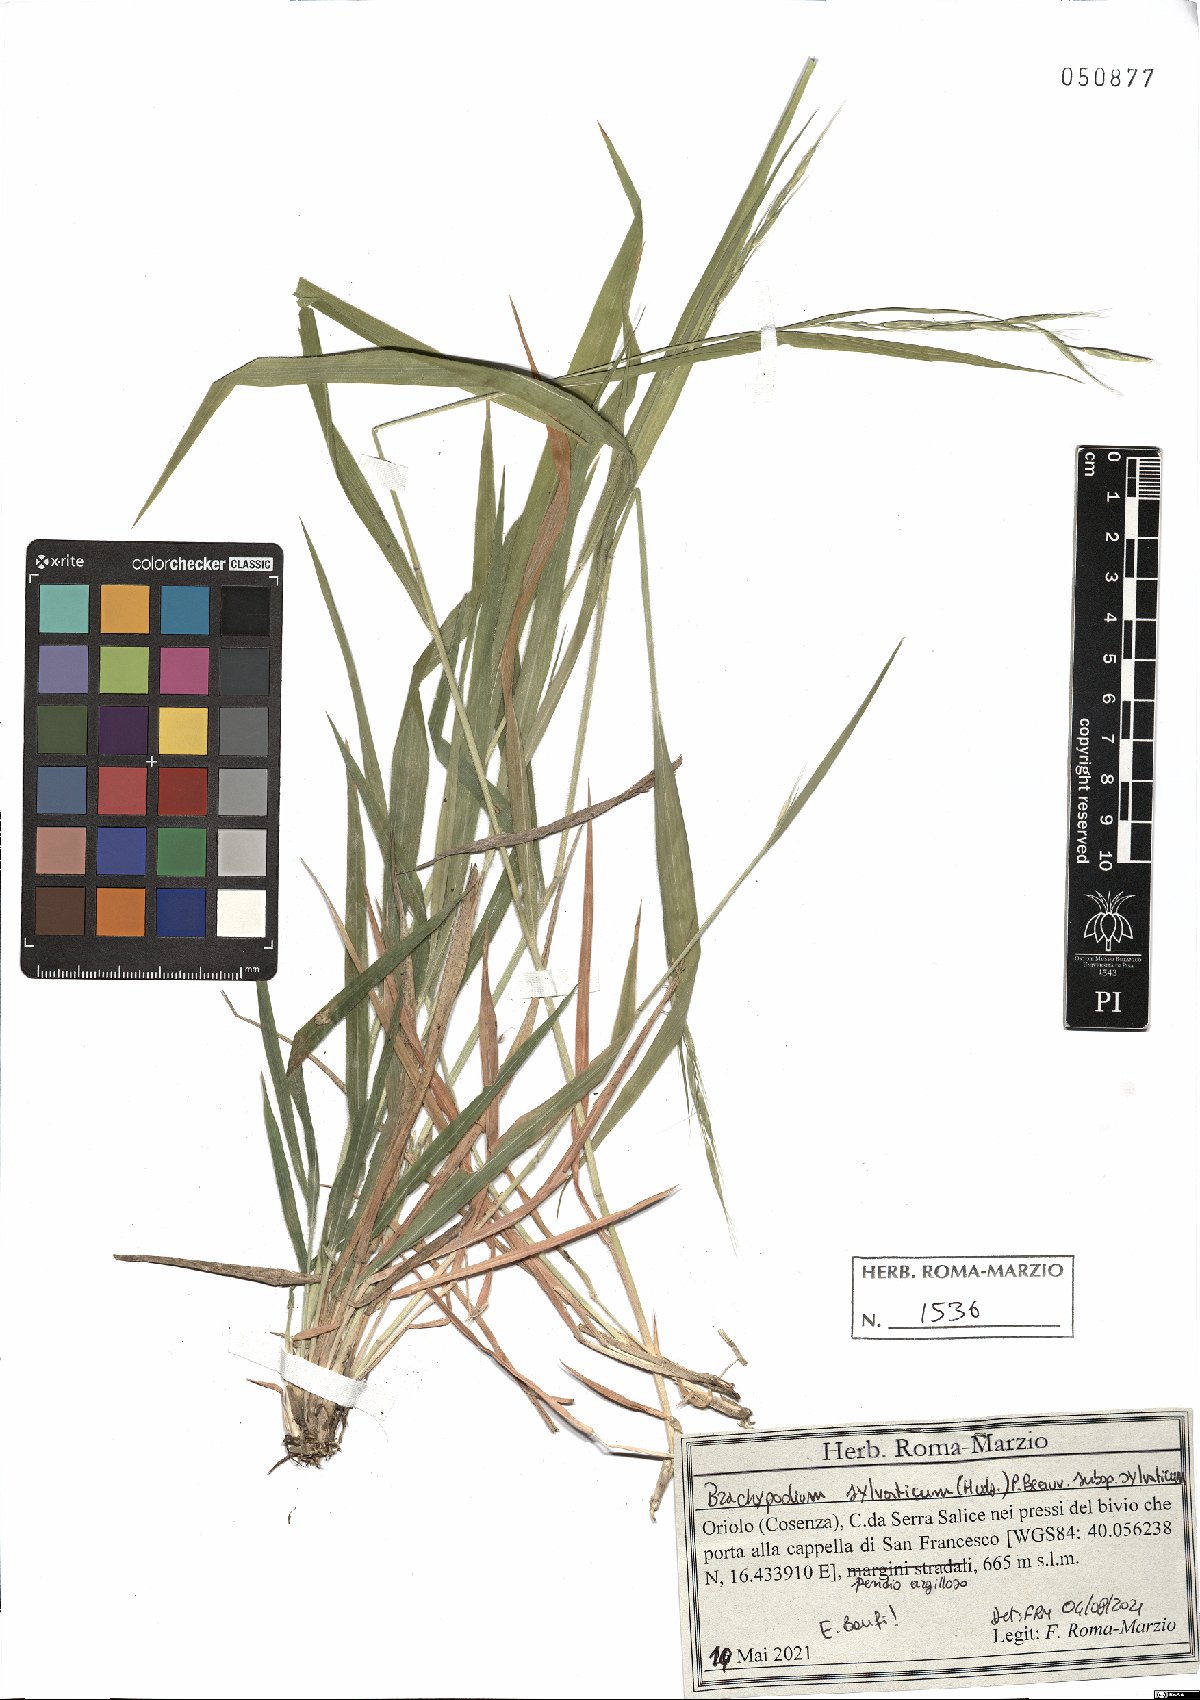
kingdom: Plantae
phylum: Tracheophyta
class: Liliopsida
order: Poales
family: Poaceae
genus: Brachypodium
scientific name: Brachypodium sylvaticum
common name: False-brome
